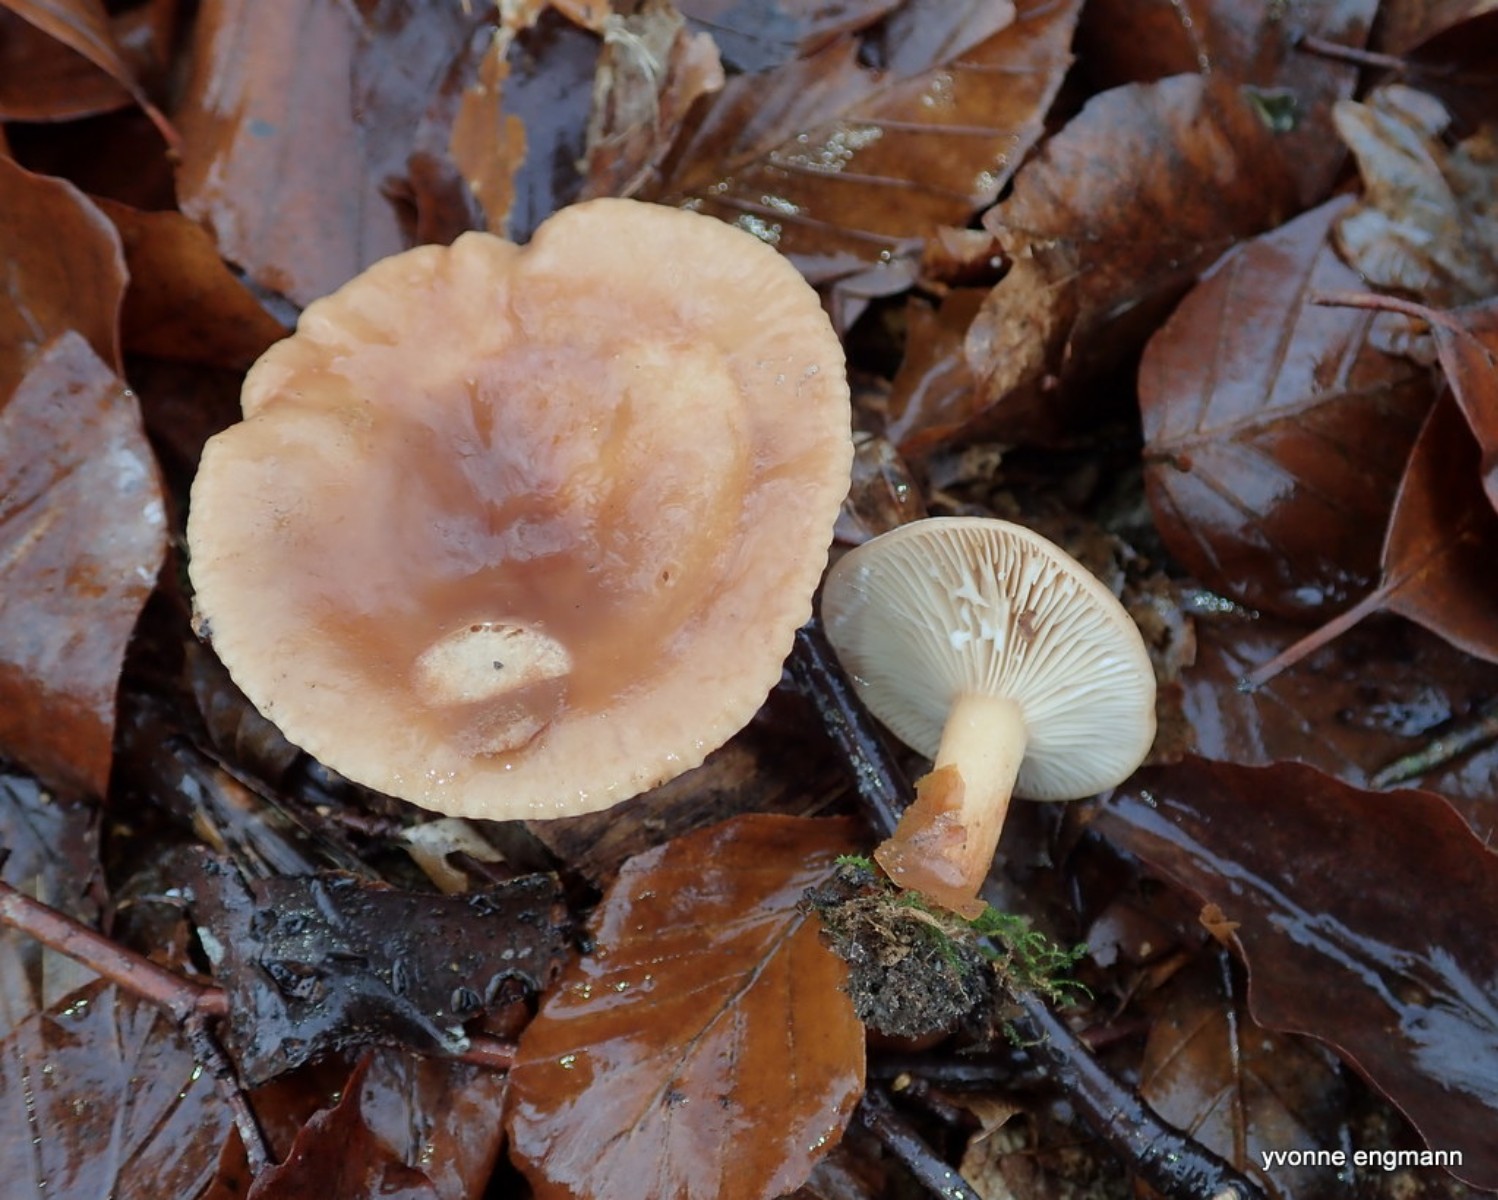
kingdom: Fungi
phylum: Basidiomycota
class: Agaricomycetes
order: Russulales
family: Russulaceae
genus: Lactarius
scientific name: Lactarius subdulcis
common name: sødlig mælkehat
